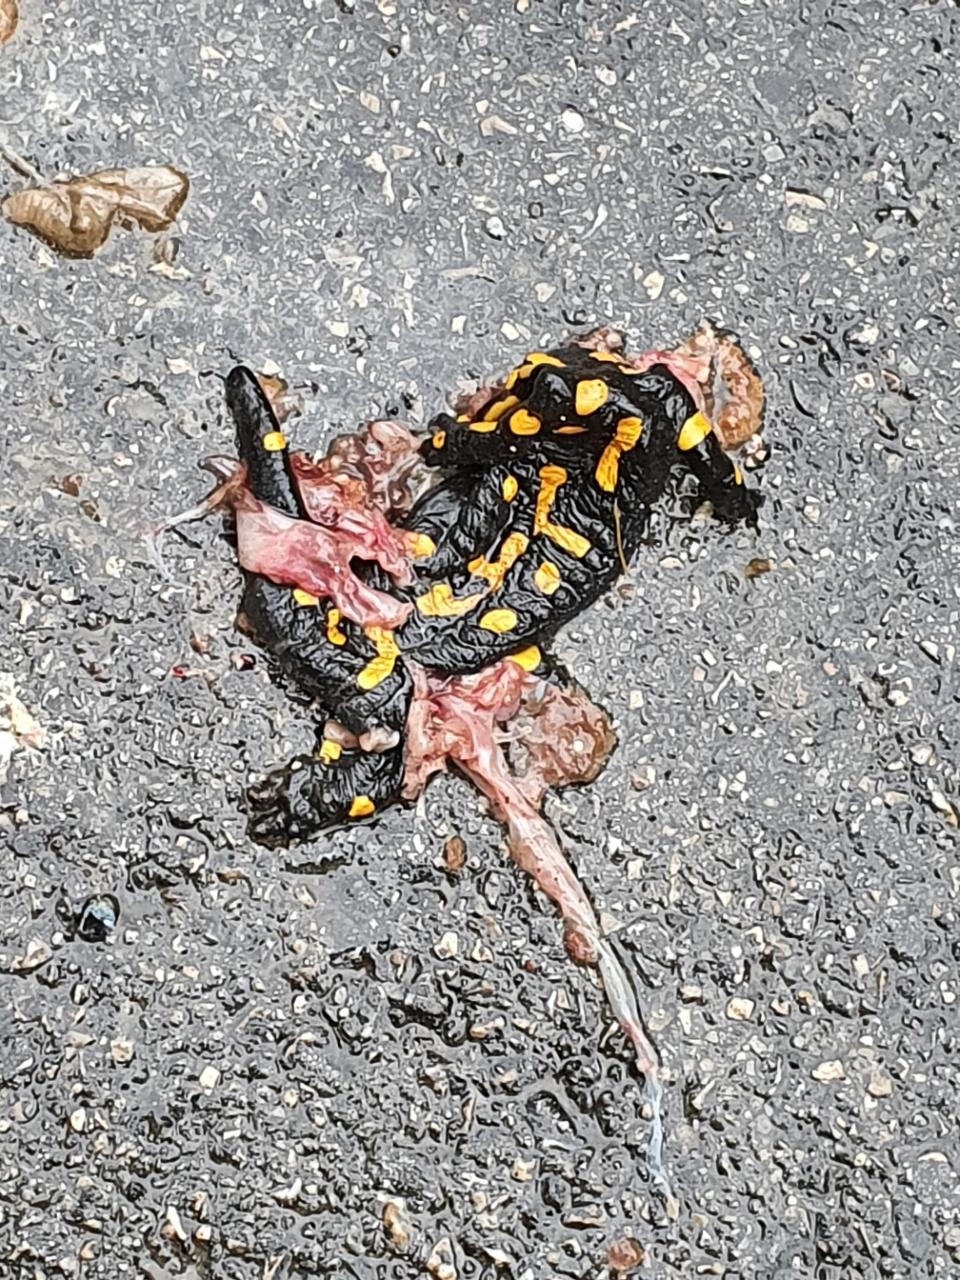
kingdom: Animalia
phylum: Chordata
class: Amphibia
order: Caudata
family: Salamandridae
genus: Salamandra
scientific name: Salamandra salamandra
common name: Fire salamander
